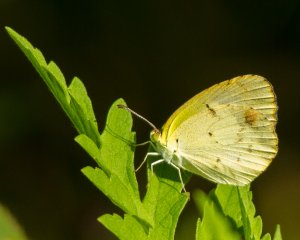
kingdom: Animalia
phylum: Arthropoda
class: Insecta
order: Lepidoptera
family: Pieridae
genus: Pyrisitia
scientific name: Pyrisitia lisa
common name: Little Yellow
